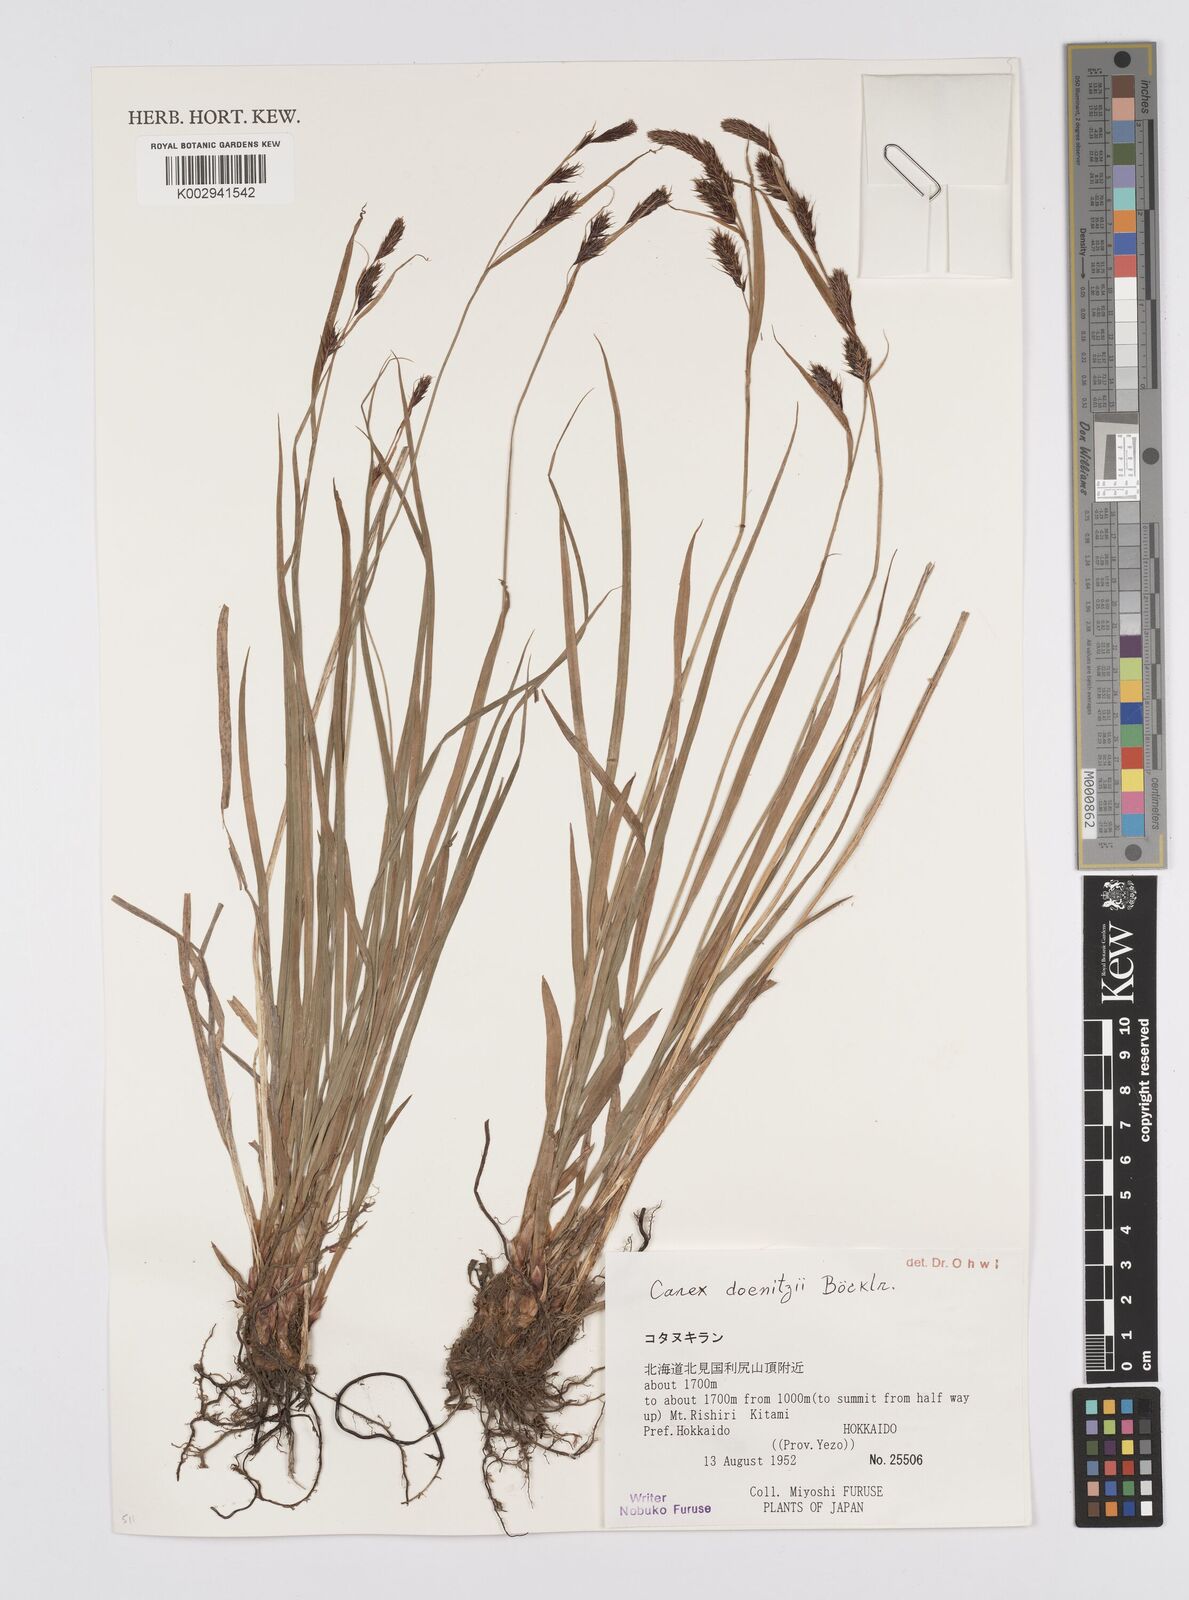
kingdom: Plantae
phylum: Tracheophyta
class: Liliopsida
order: Poales
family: Cyperaceae
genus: Carex
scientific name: Carex doenitzii
